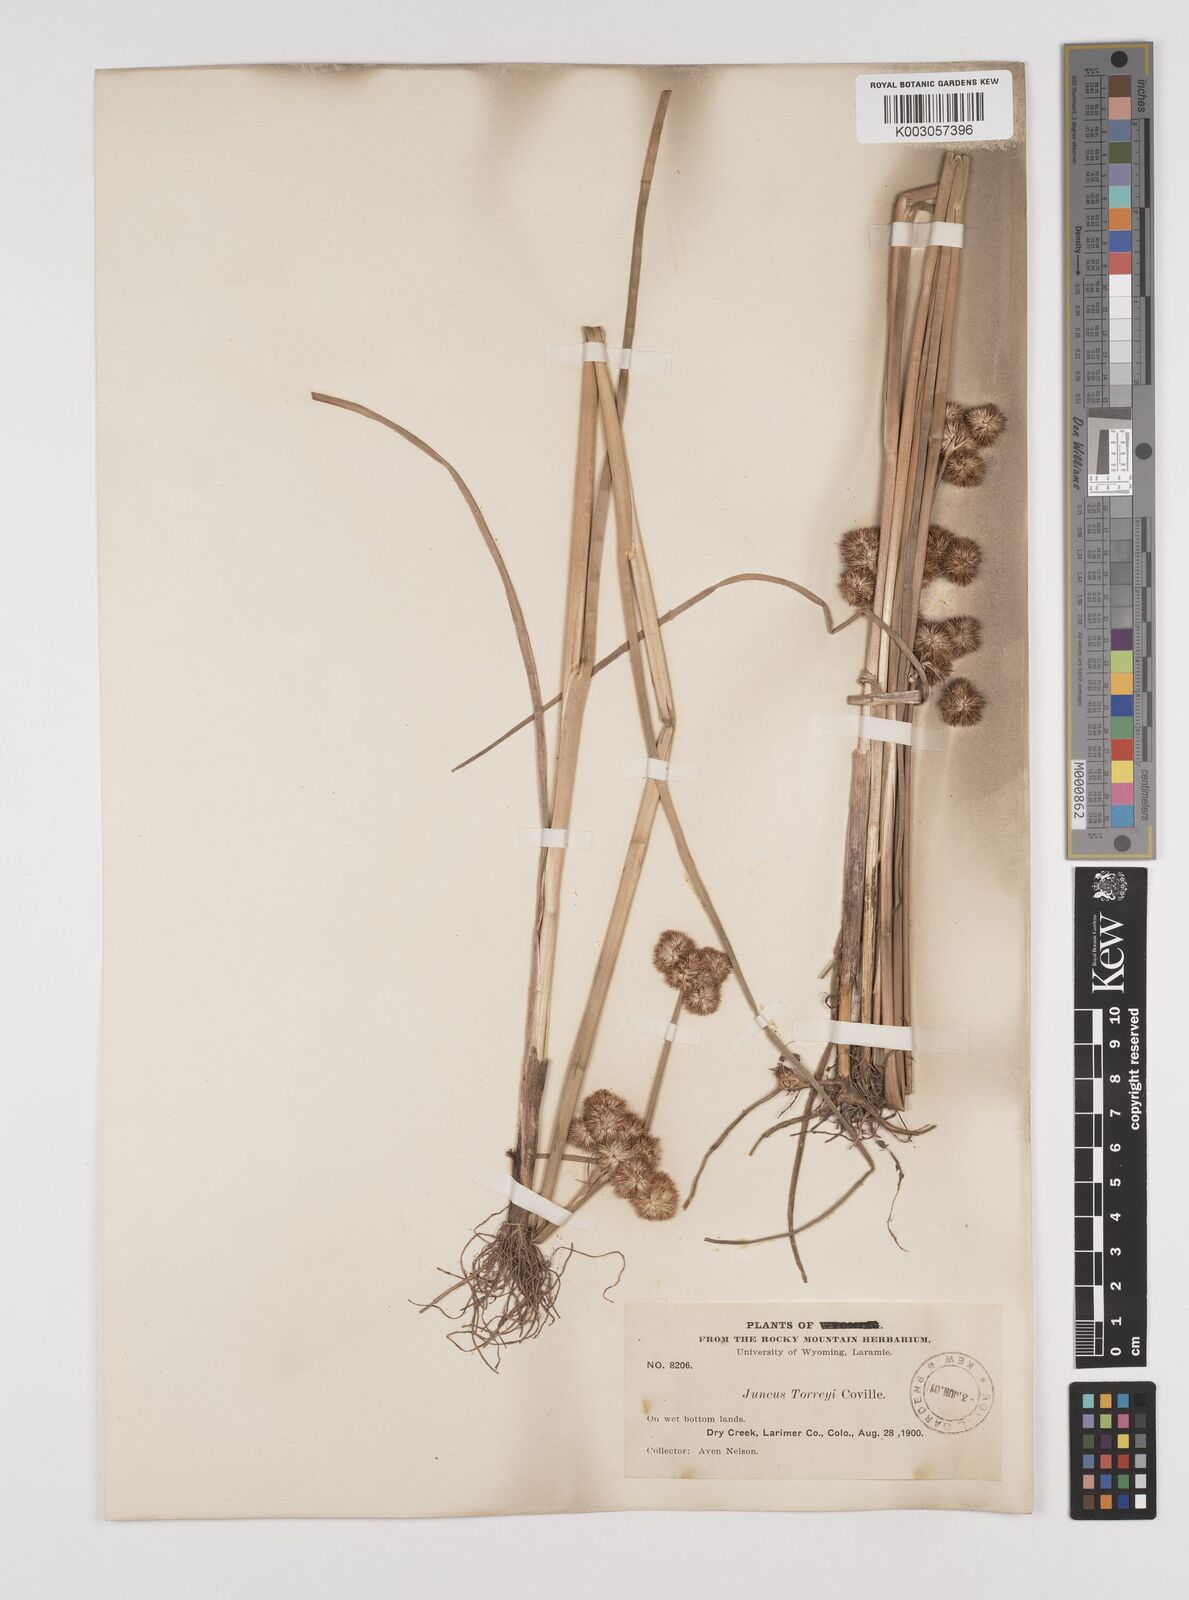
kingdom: Plantae
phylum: Tracheophyta
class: Liliopsida
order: Poales
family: Juncaceae
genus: Juncus
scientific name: Juncus torreyi
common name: Torrey's rush
